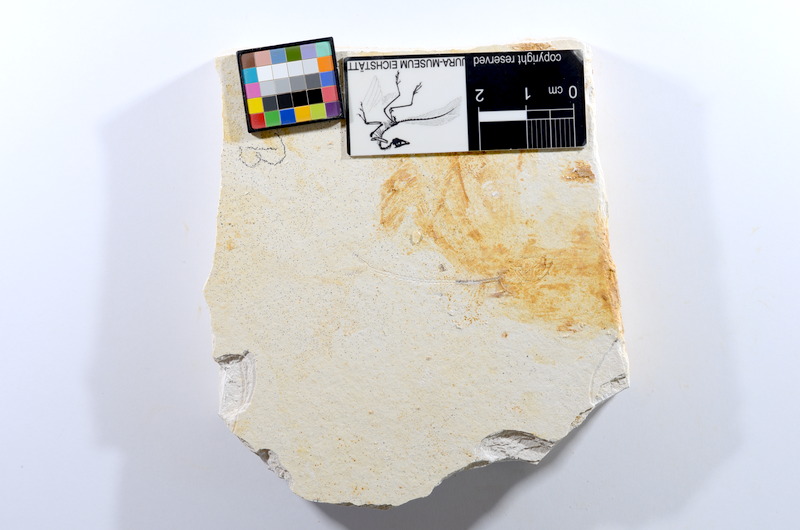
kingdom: Animalia
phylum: Chordata
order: Salmoniformes
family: Orthogonikleithridae
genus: Orthogonikleithrus
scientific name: Orthogonikleithrus hoelli
